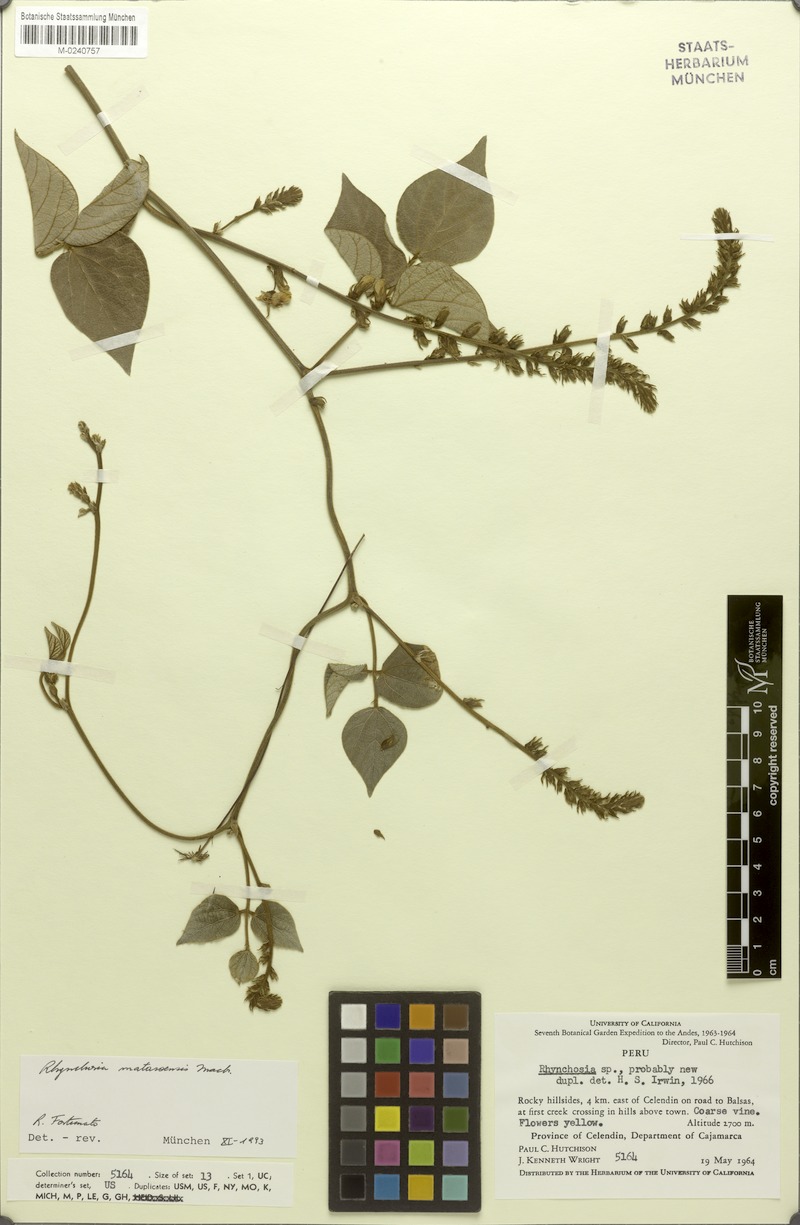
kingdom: Plantae
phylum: Tracheophyta
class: Magnoliopsida
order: Fabales
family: Fabaceae
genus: Rhynchosia
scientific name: Rhynchosia mantaroensis
